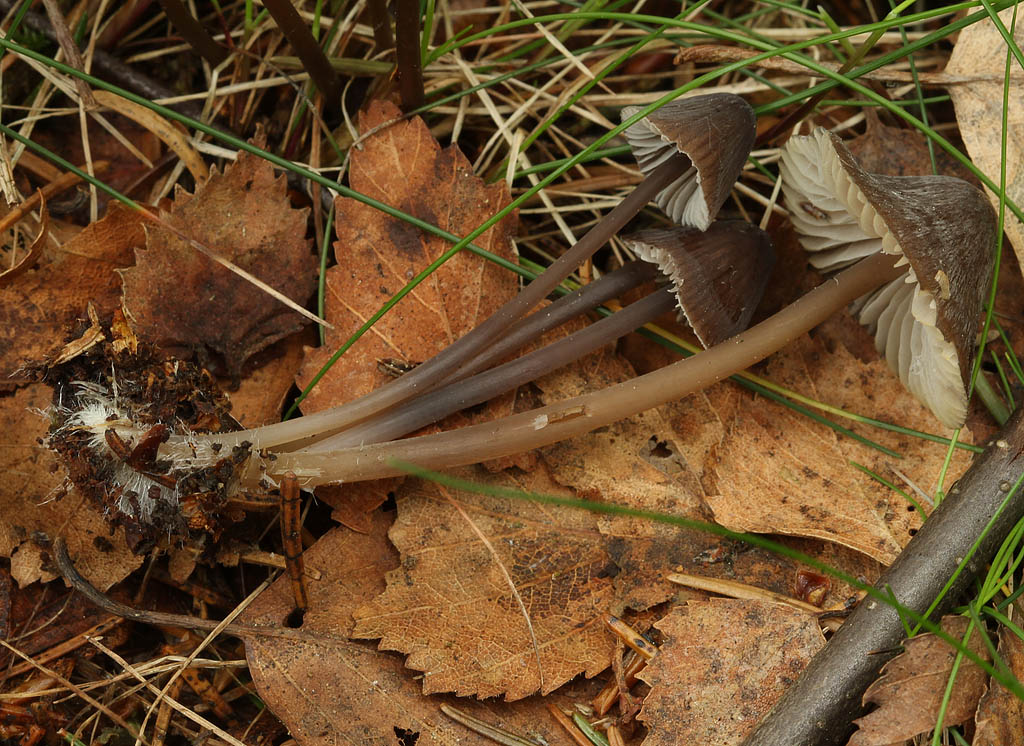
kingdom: Fungi
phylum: Basidiomycota
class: Agaricomycetes
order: Agaricales
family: Mycenaceae
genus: Mycena
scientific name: Mycena silvae-nigrae
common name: tidlig huesvamp
